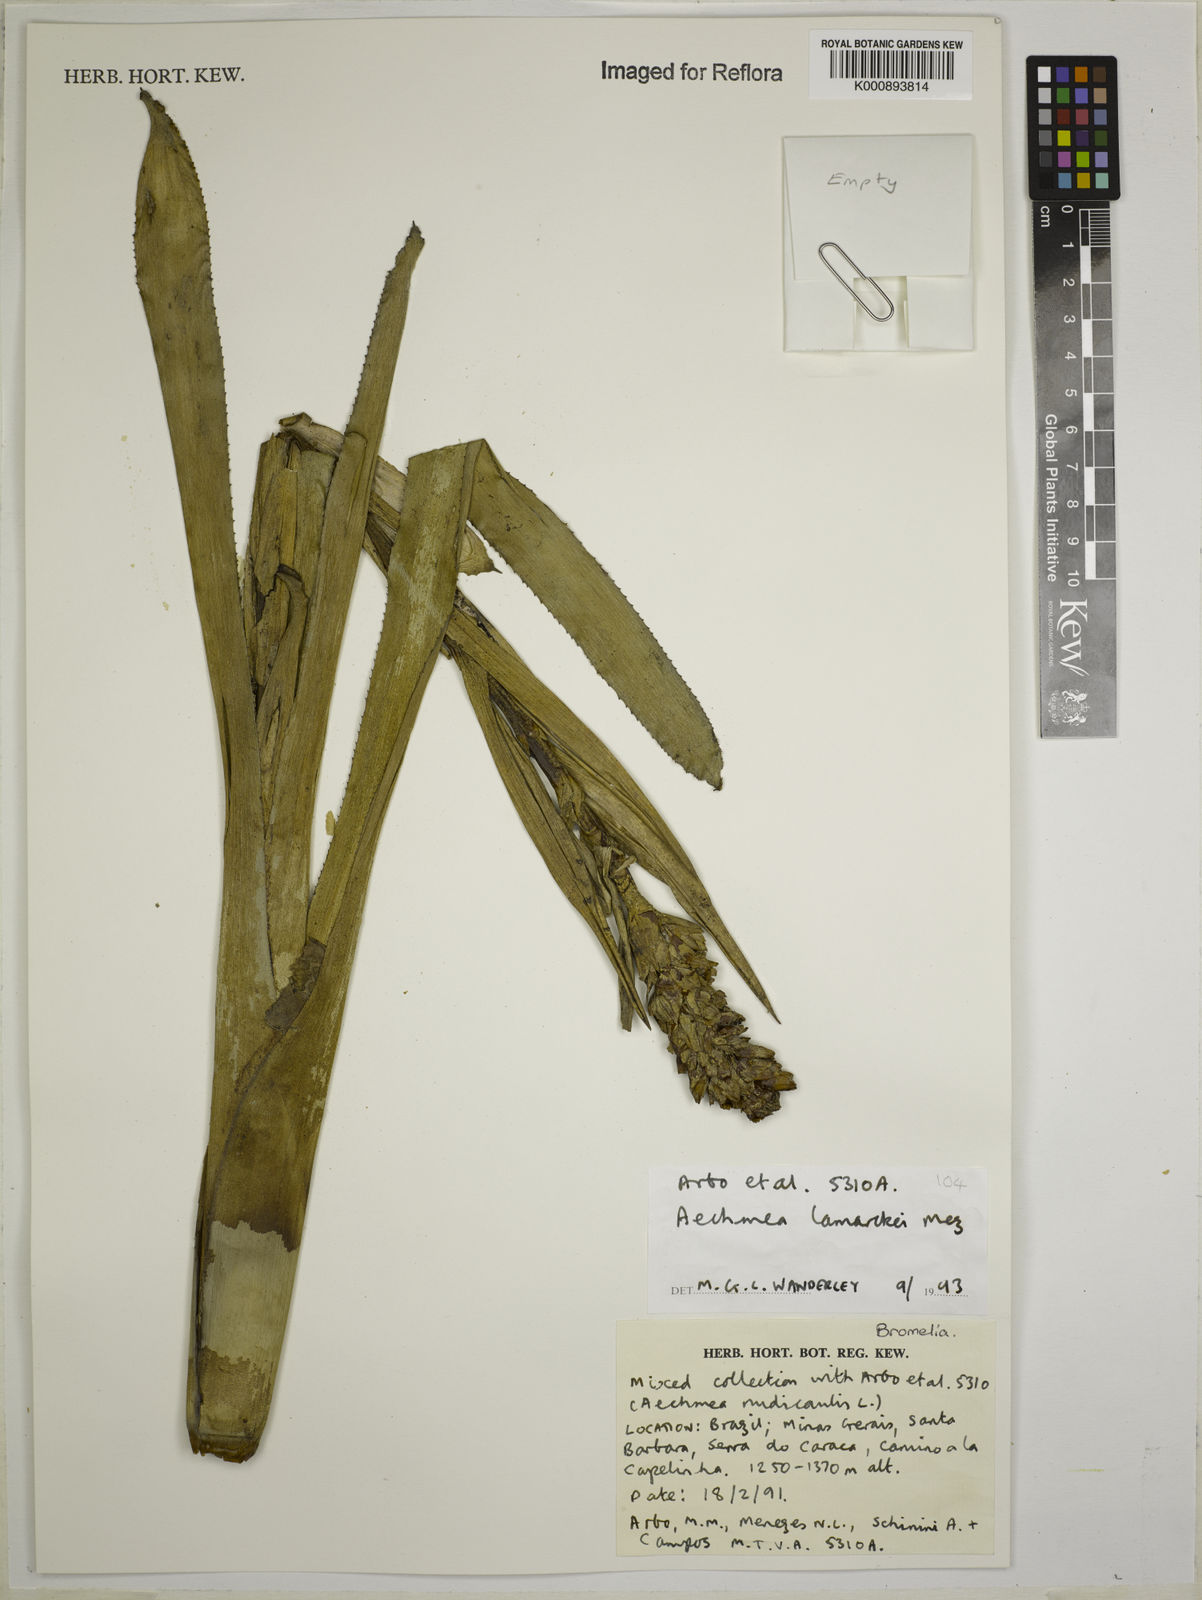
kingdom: Plantae
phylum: Tracheophyta
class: Liliopsida
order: Poales
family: Bromeliaceae
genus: Aechmea
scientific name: Aechmea lamarchei
